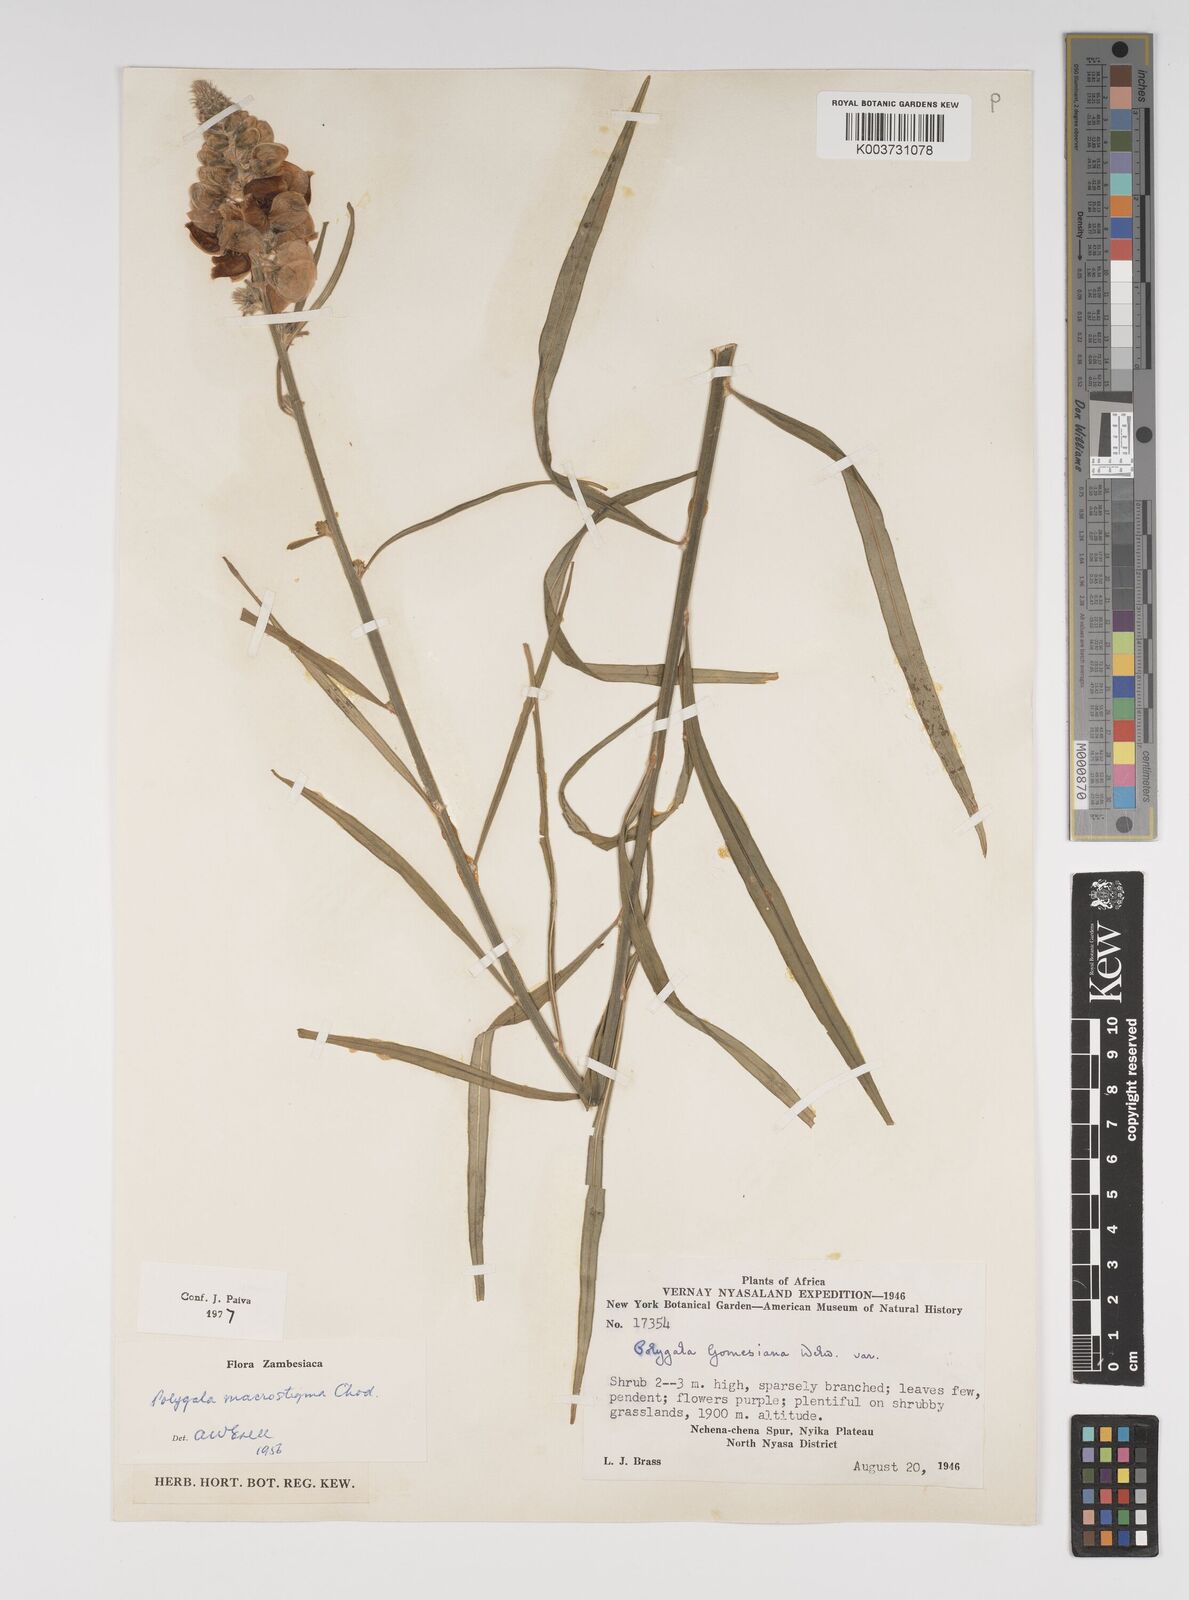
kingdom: Plantae
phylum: Tracheophyta
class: Magnoliopsida
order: Fabales
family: Polygalaceae
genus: Polygala
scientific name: Polygala macrostigma
